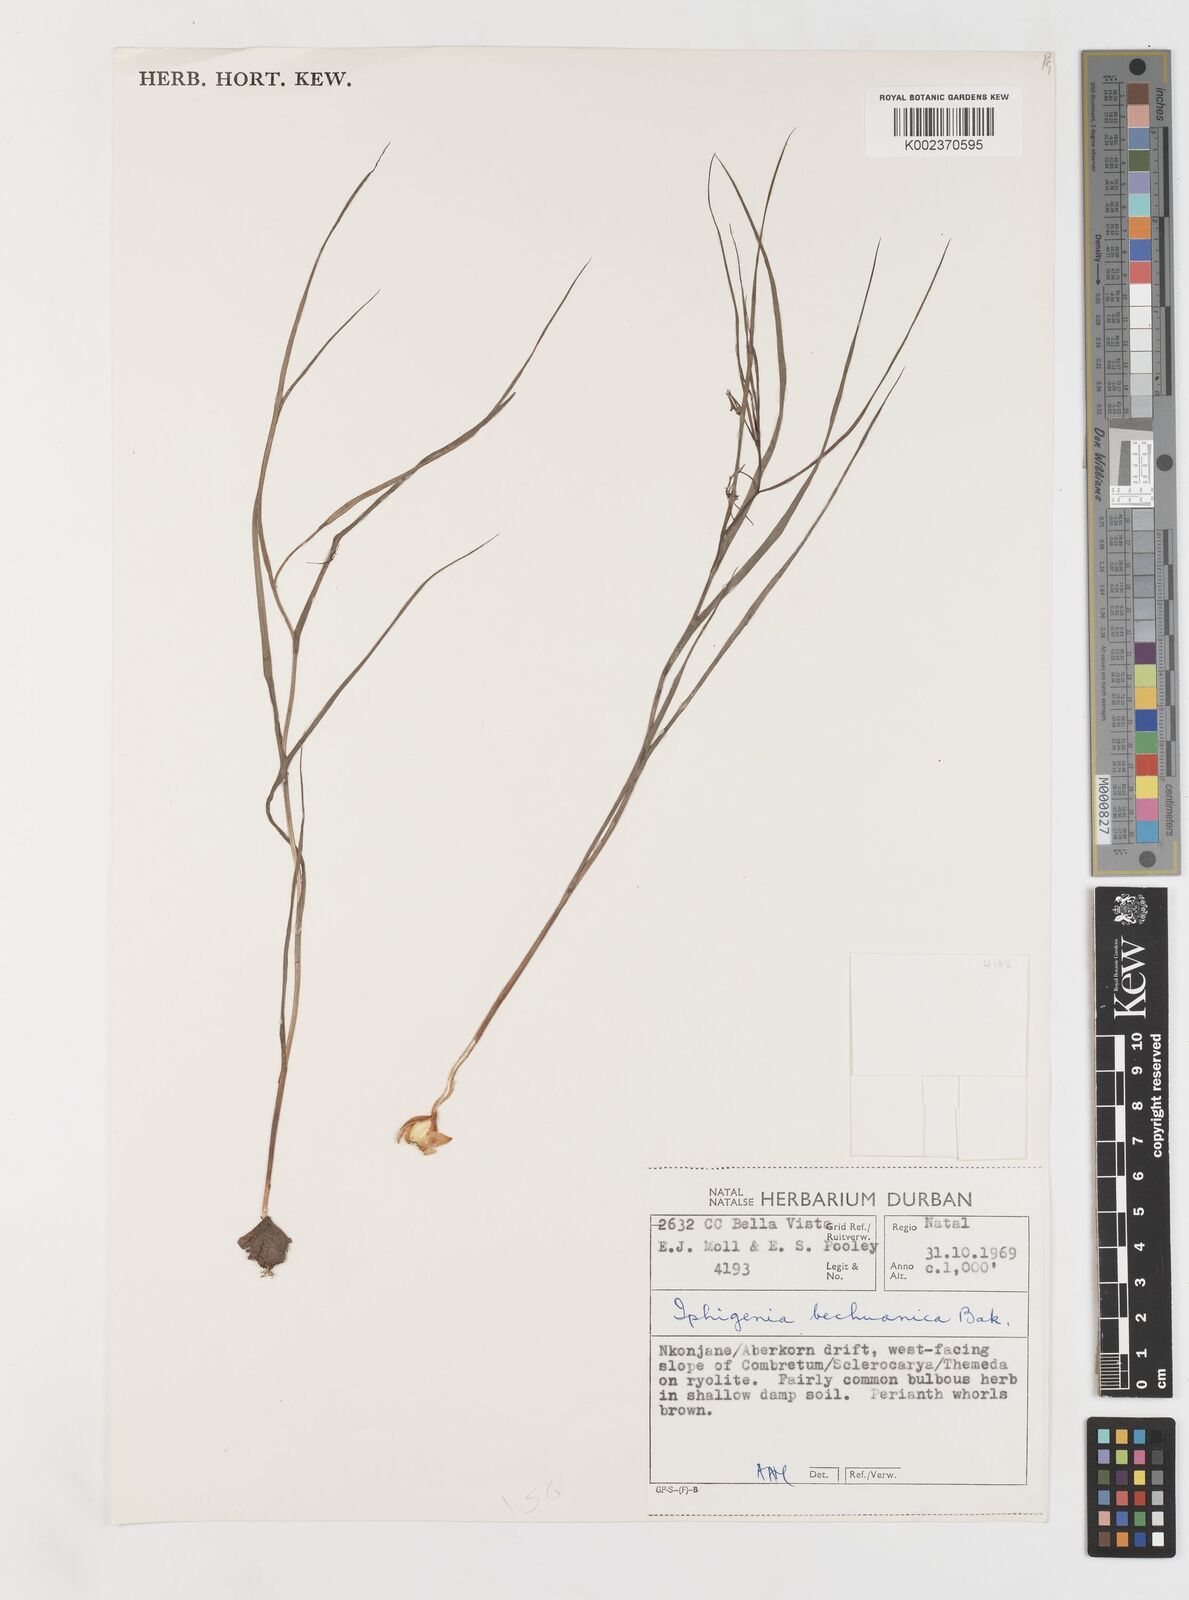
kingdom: Plantae
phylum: Tracheophyta
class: Liliopsida
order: Liliales
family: Colchicaceae
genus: Iphigenia
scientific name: Iphigenia oliveri
